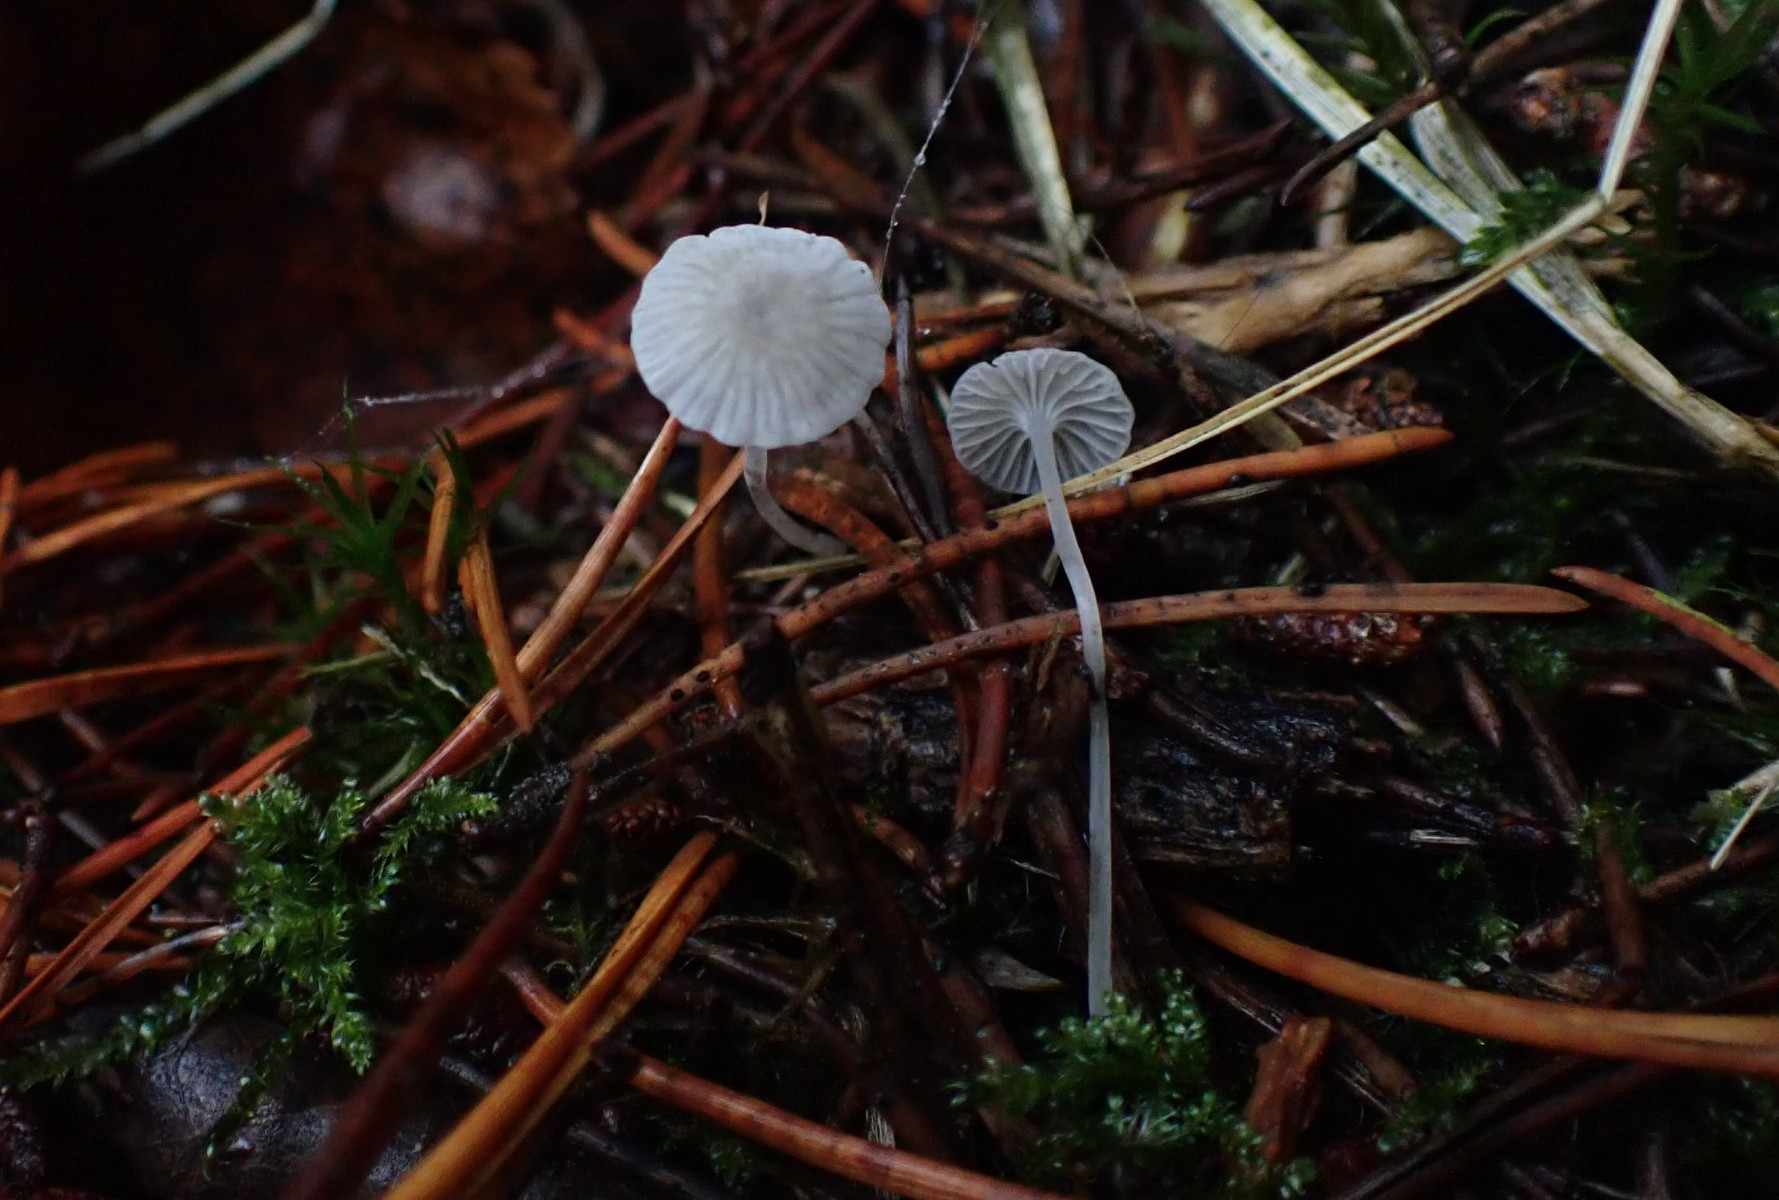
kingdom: Fungi
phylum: Basidiomycota
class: Agaricomycetes
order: Agaricales
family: Mycenaceae
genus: Mycena
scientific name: Mycena cinerella
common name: mel-huesvamp
